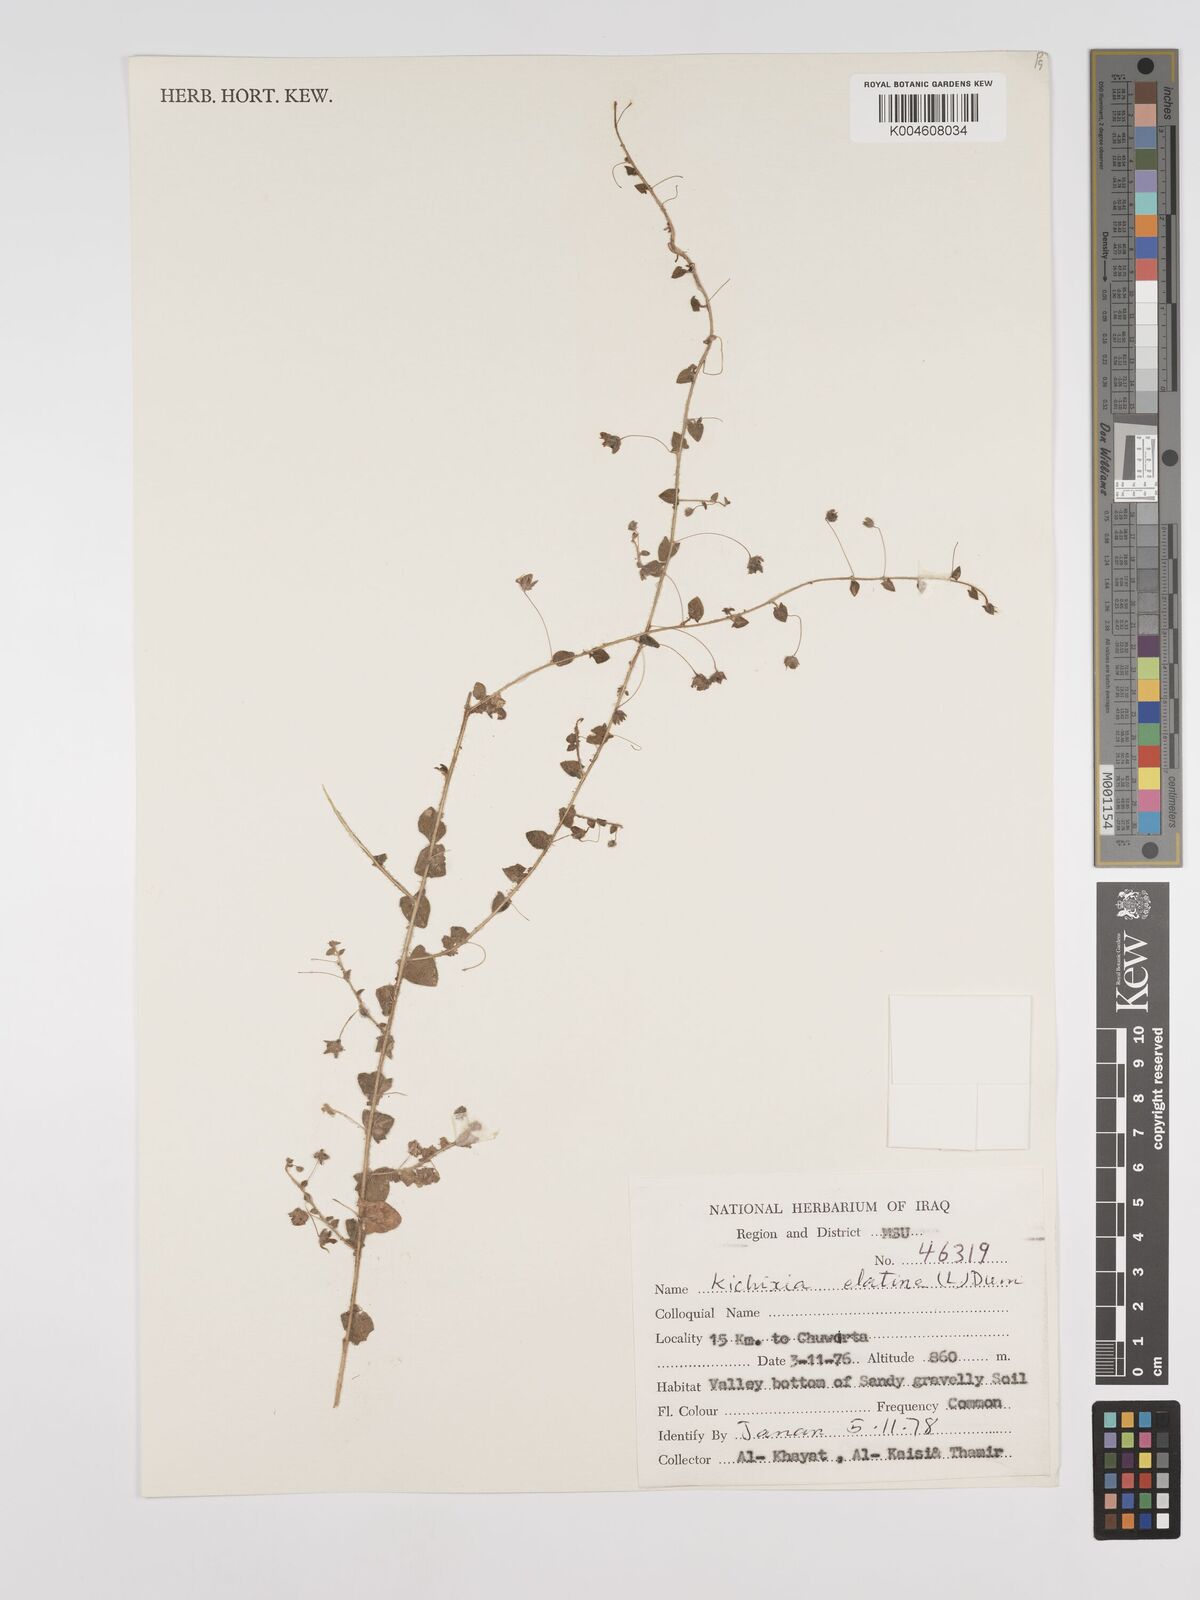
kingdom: Plantae
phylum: Tracheophyta
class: Magnoliopsida
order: Lamiales
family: Plantaginaceae
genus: Kickxia
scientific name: Kickxia elatine
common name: Sharp-leaved fluellen
